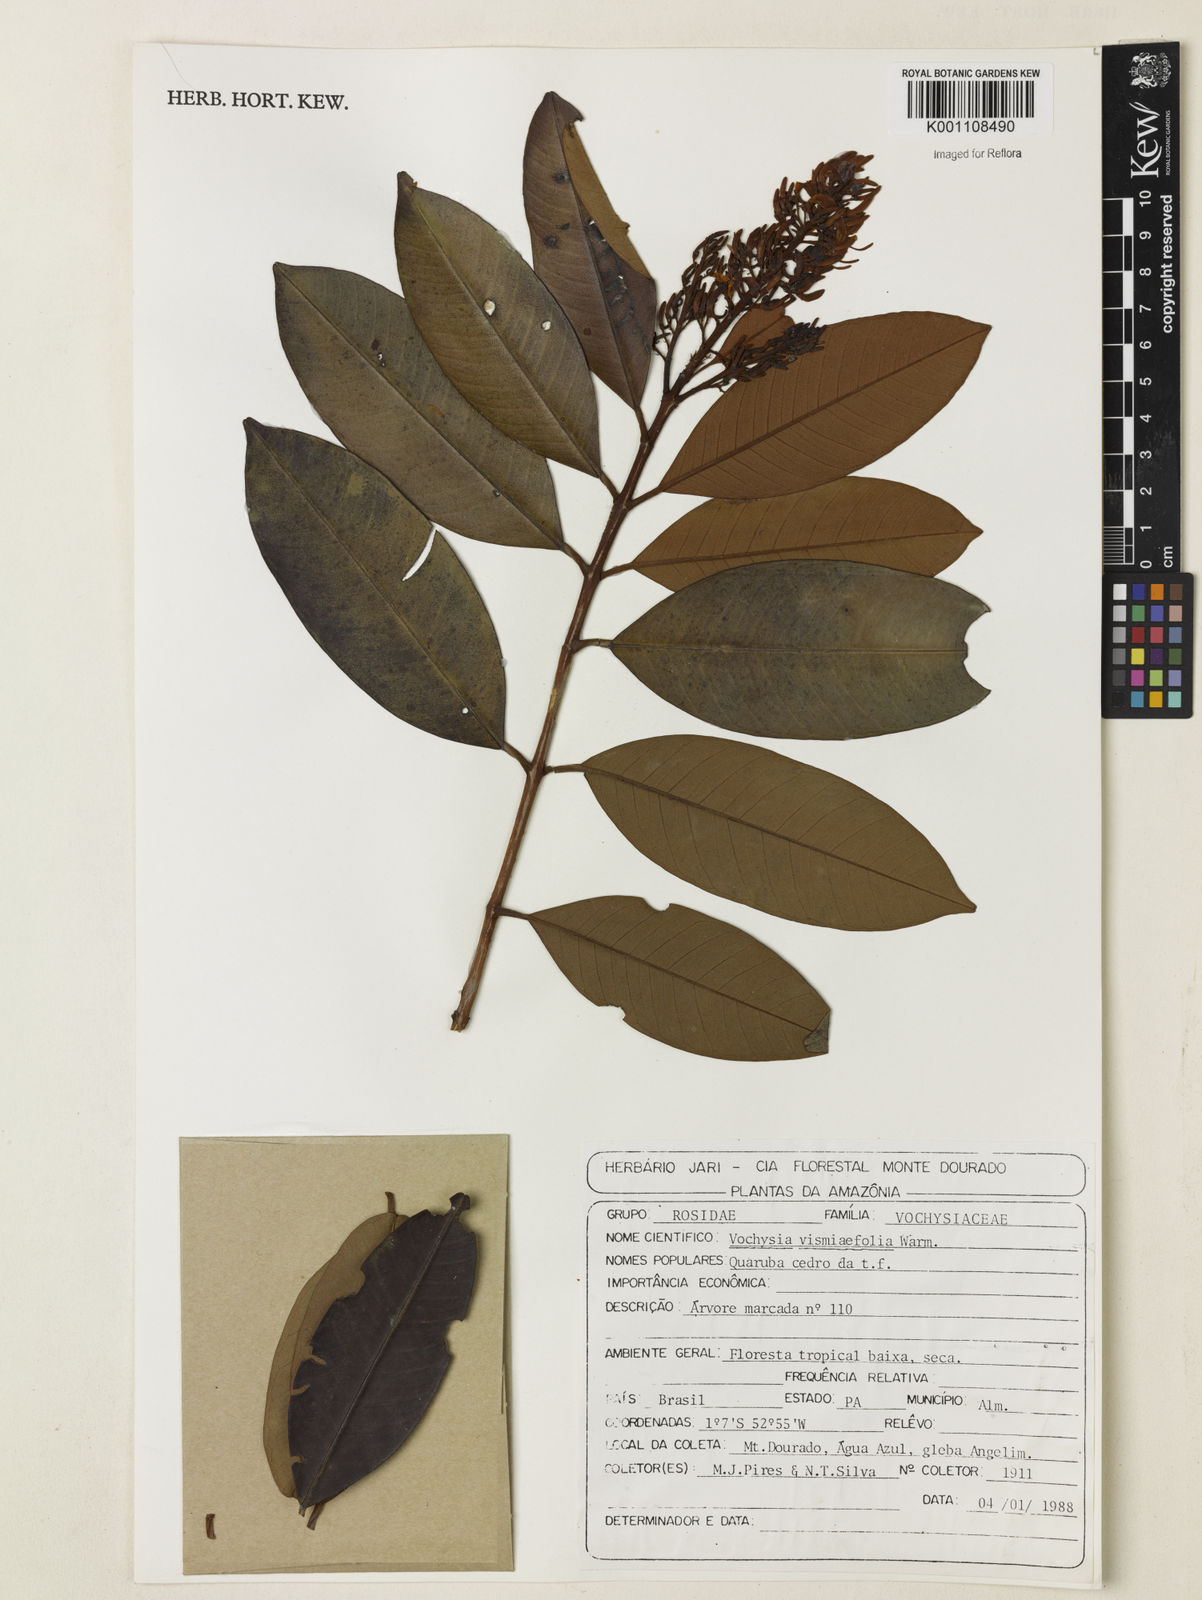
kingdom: Plantae
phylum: Tracheophyta
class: Magnoliopsida
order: Myrtales
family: Vochysiaceae
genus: Vochysia
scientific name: Vochysia vismiifolia
